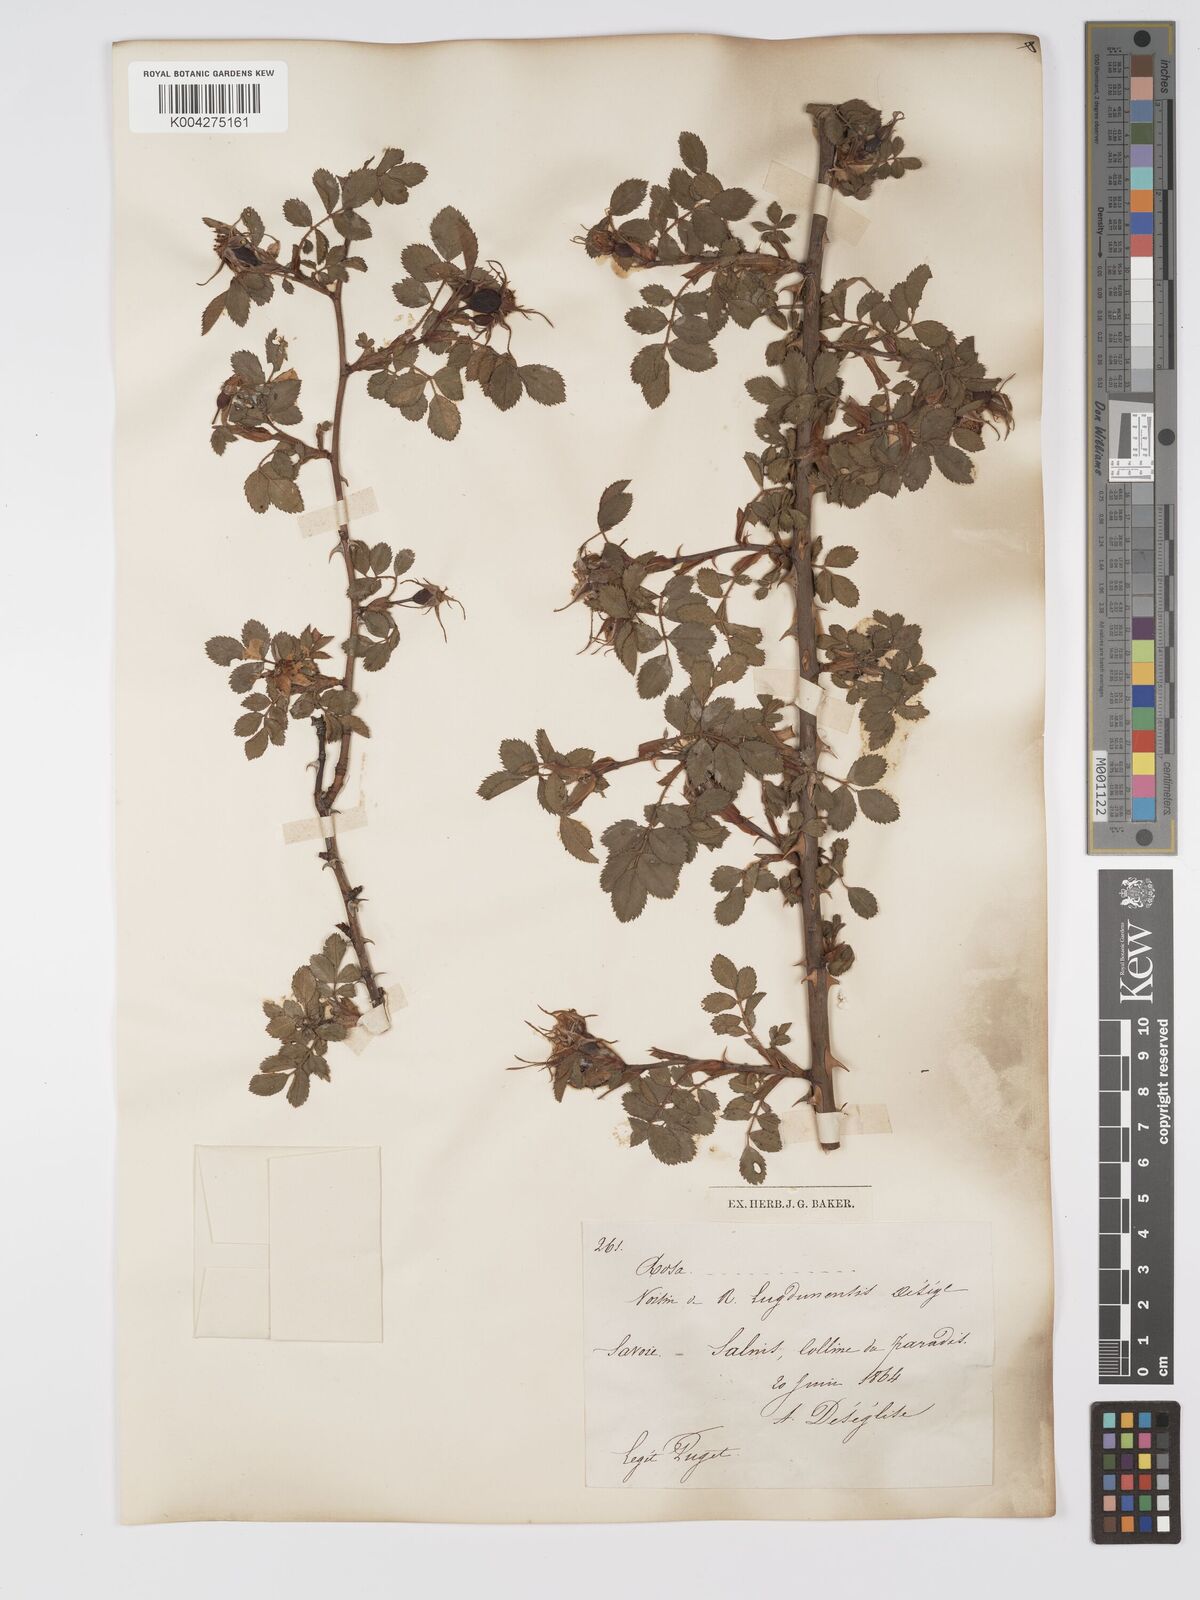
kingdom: Plantae
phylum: Tracheophyta
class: Magnoliopsida
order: Rosales
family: Rosaceae
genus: Rosa
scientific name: Rosa
